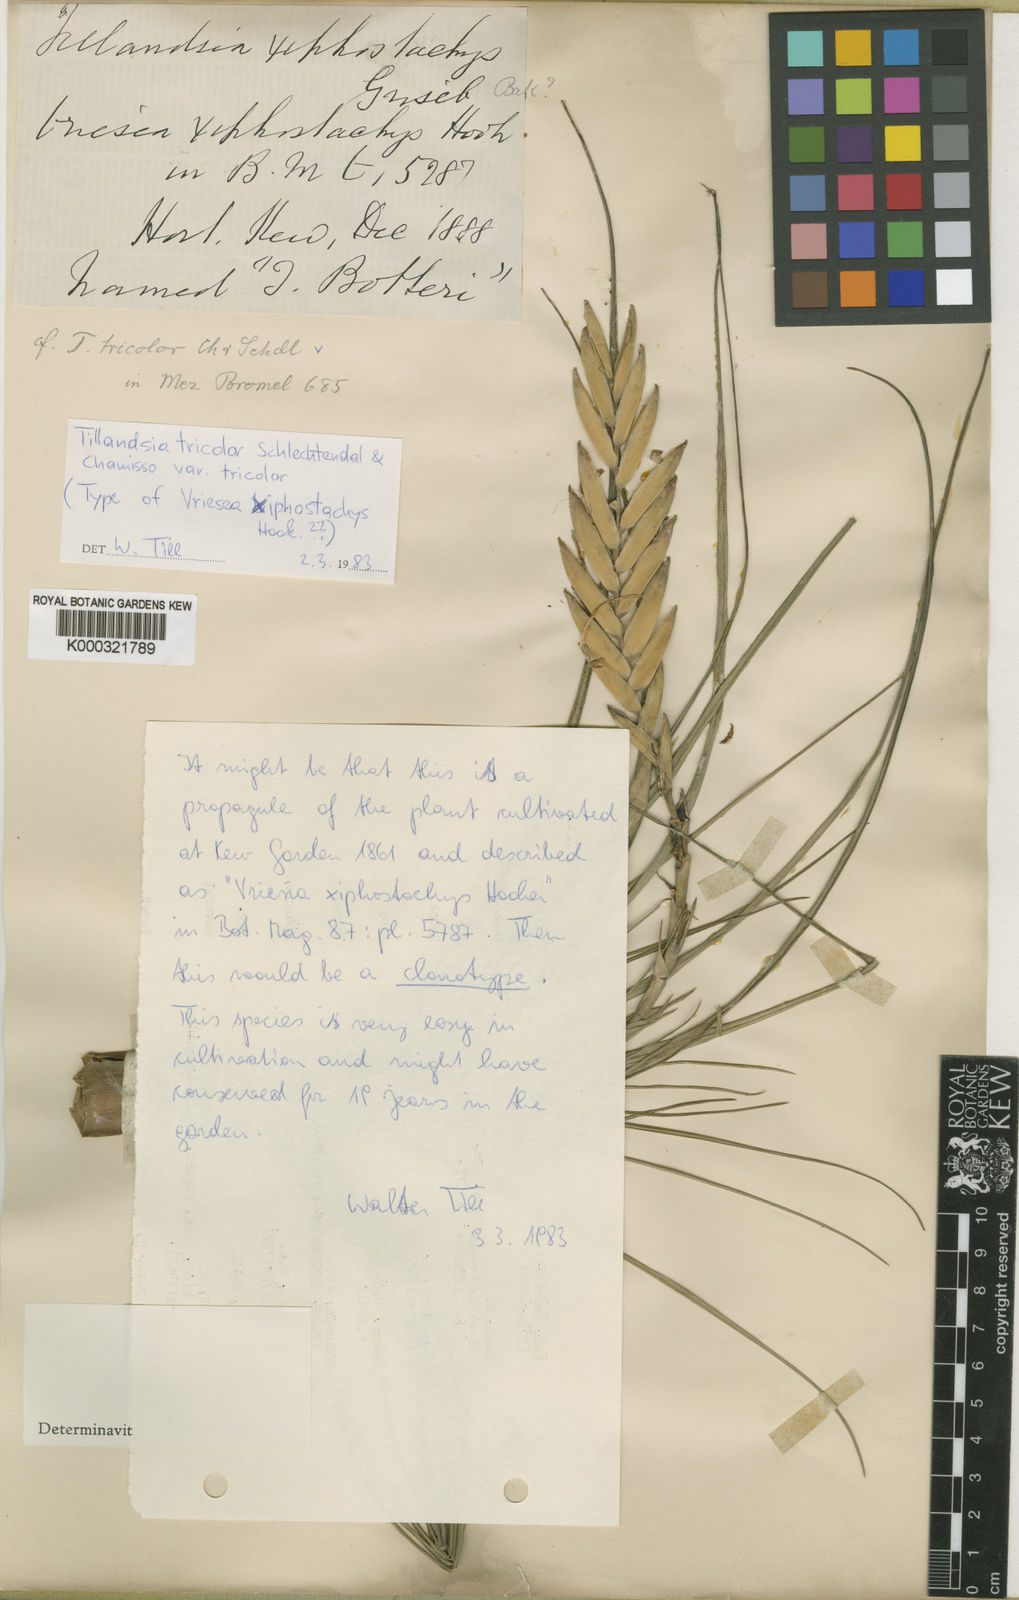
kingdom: Plantae
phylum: Tracheophyta
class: Liliopsida
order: Poales
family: Bromeliaceae
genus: Tillandsia
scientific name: Tillandsia tricolor
